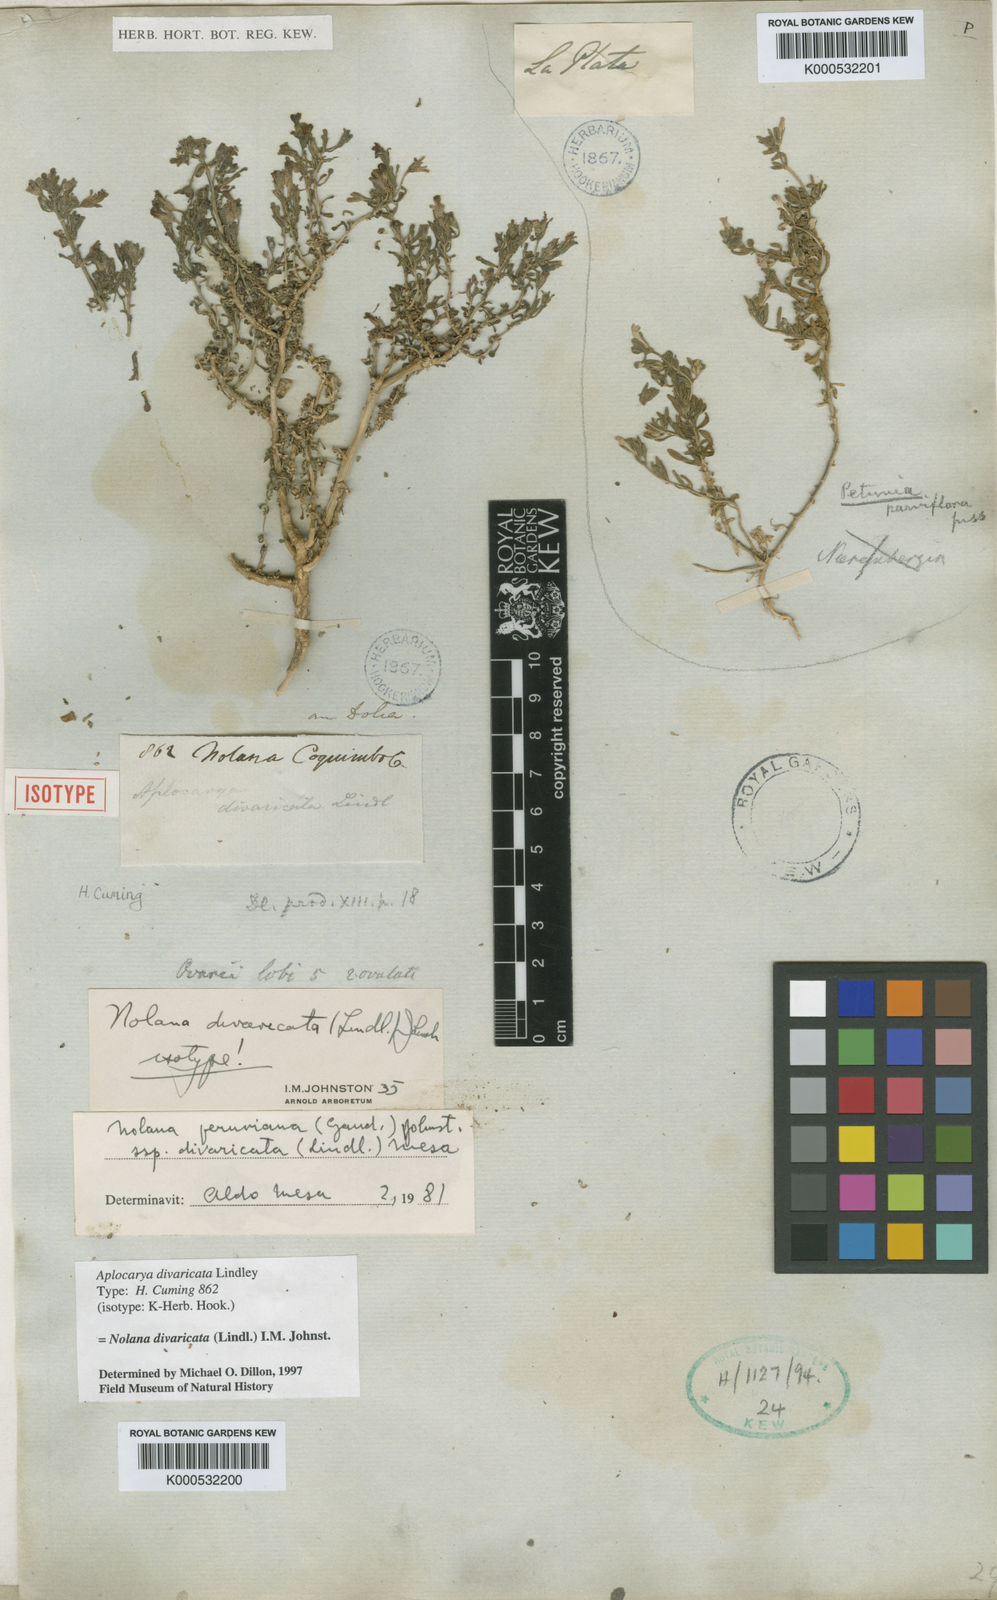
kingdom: Plantae
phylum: Tracheophyta
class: Magnoliopsida
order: Solanales
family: Solanaceae
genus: Nolana
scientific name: Nolana divaricata
